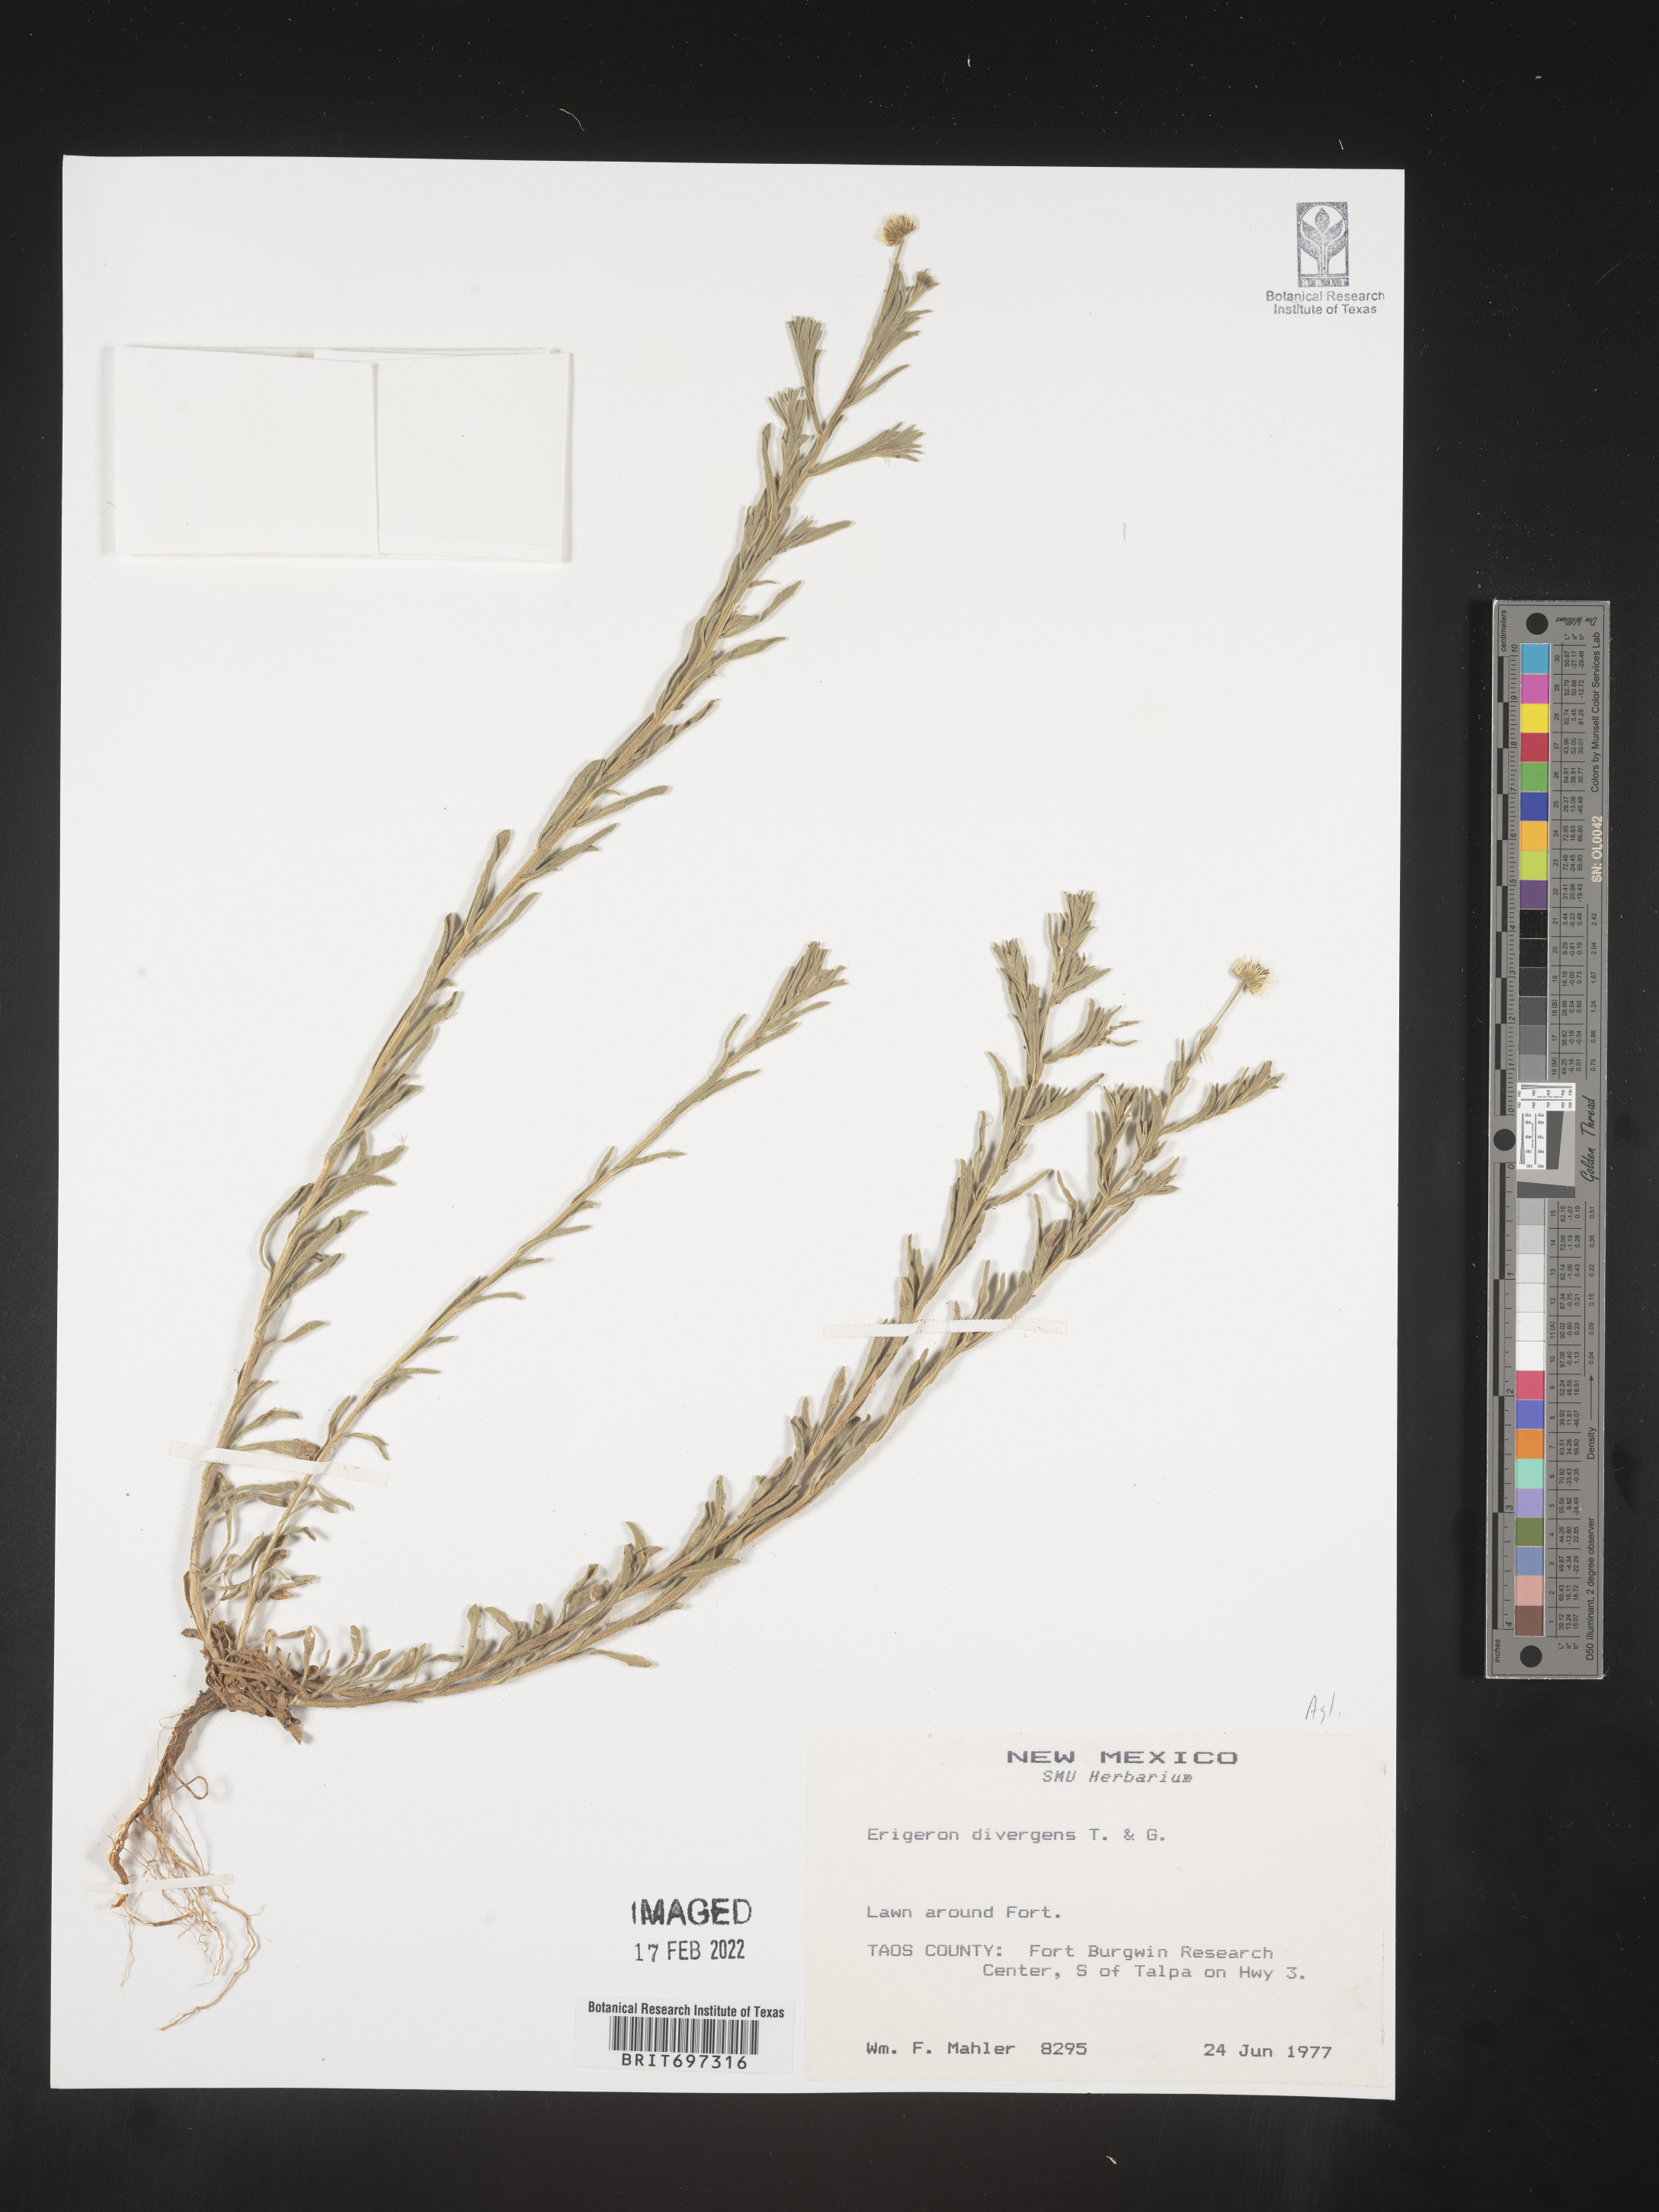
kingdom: Plantae
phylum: Tracheophyta
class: Magnoliopsida
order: Asterales
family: Asteraceae
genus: Erigeron
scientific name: Erigeron divergens
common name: Diffuse fleabane
